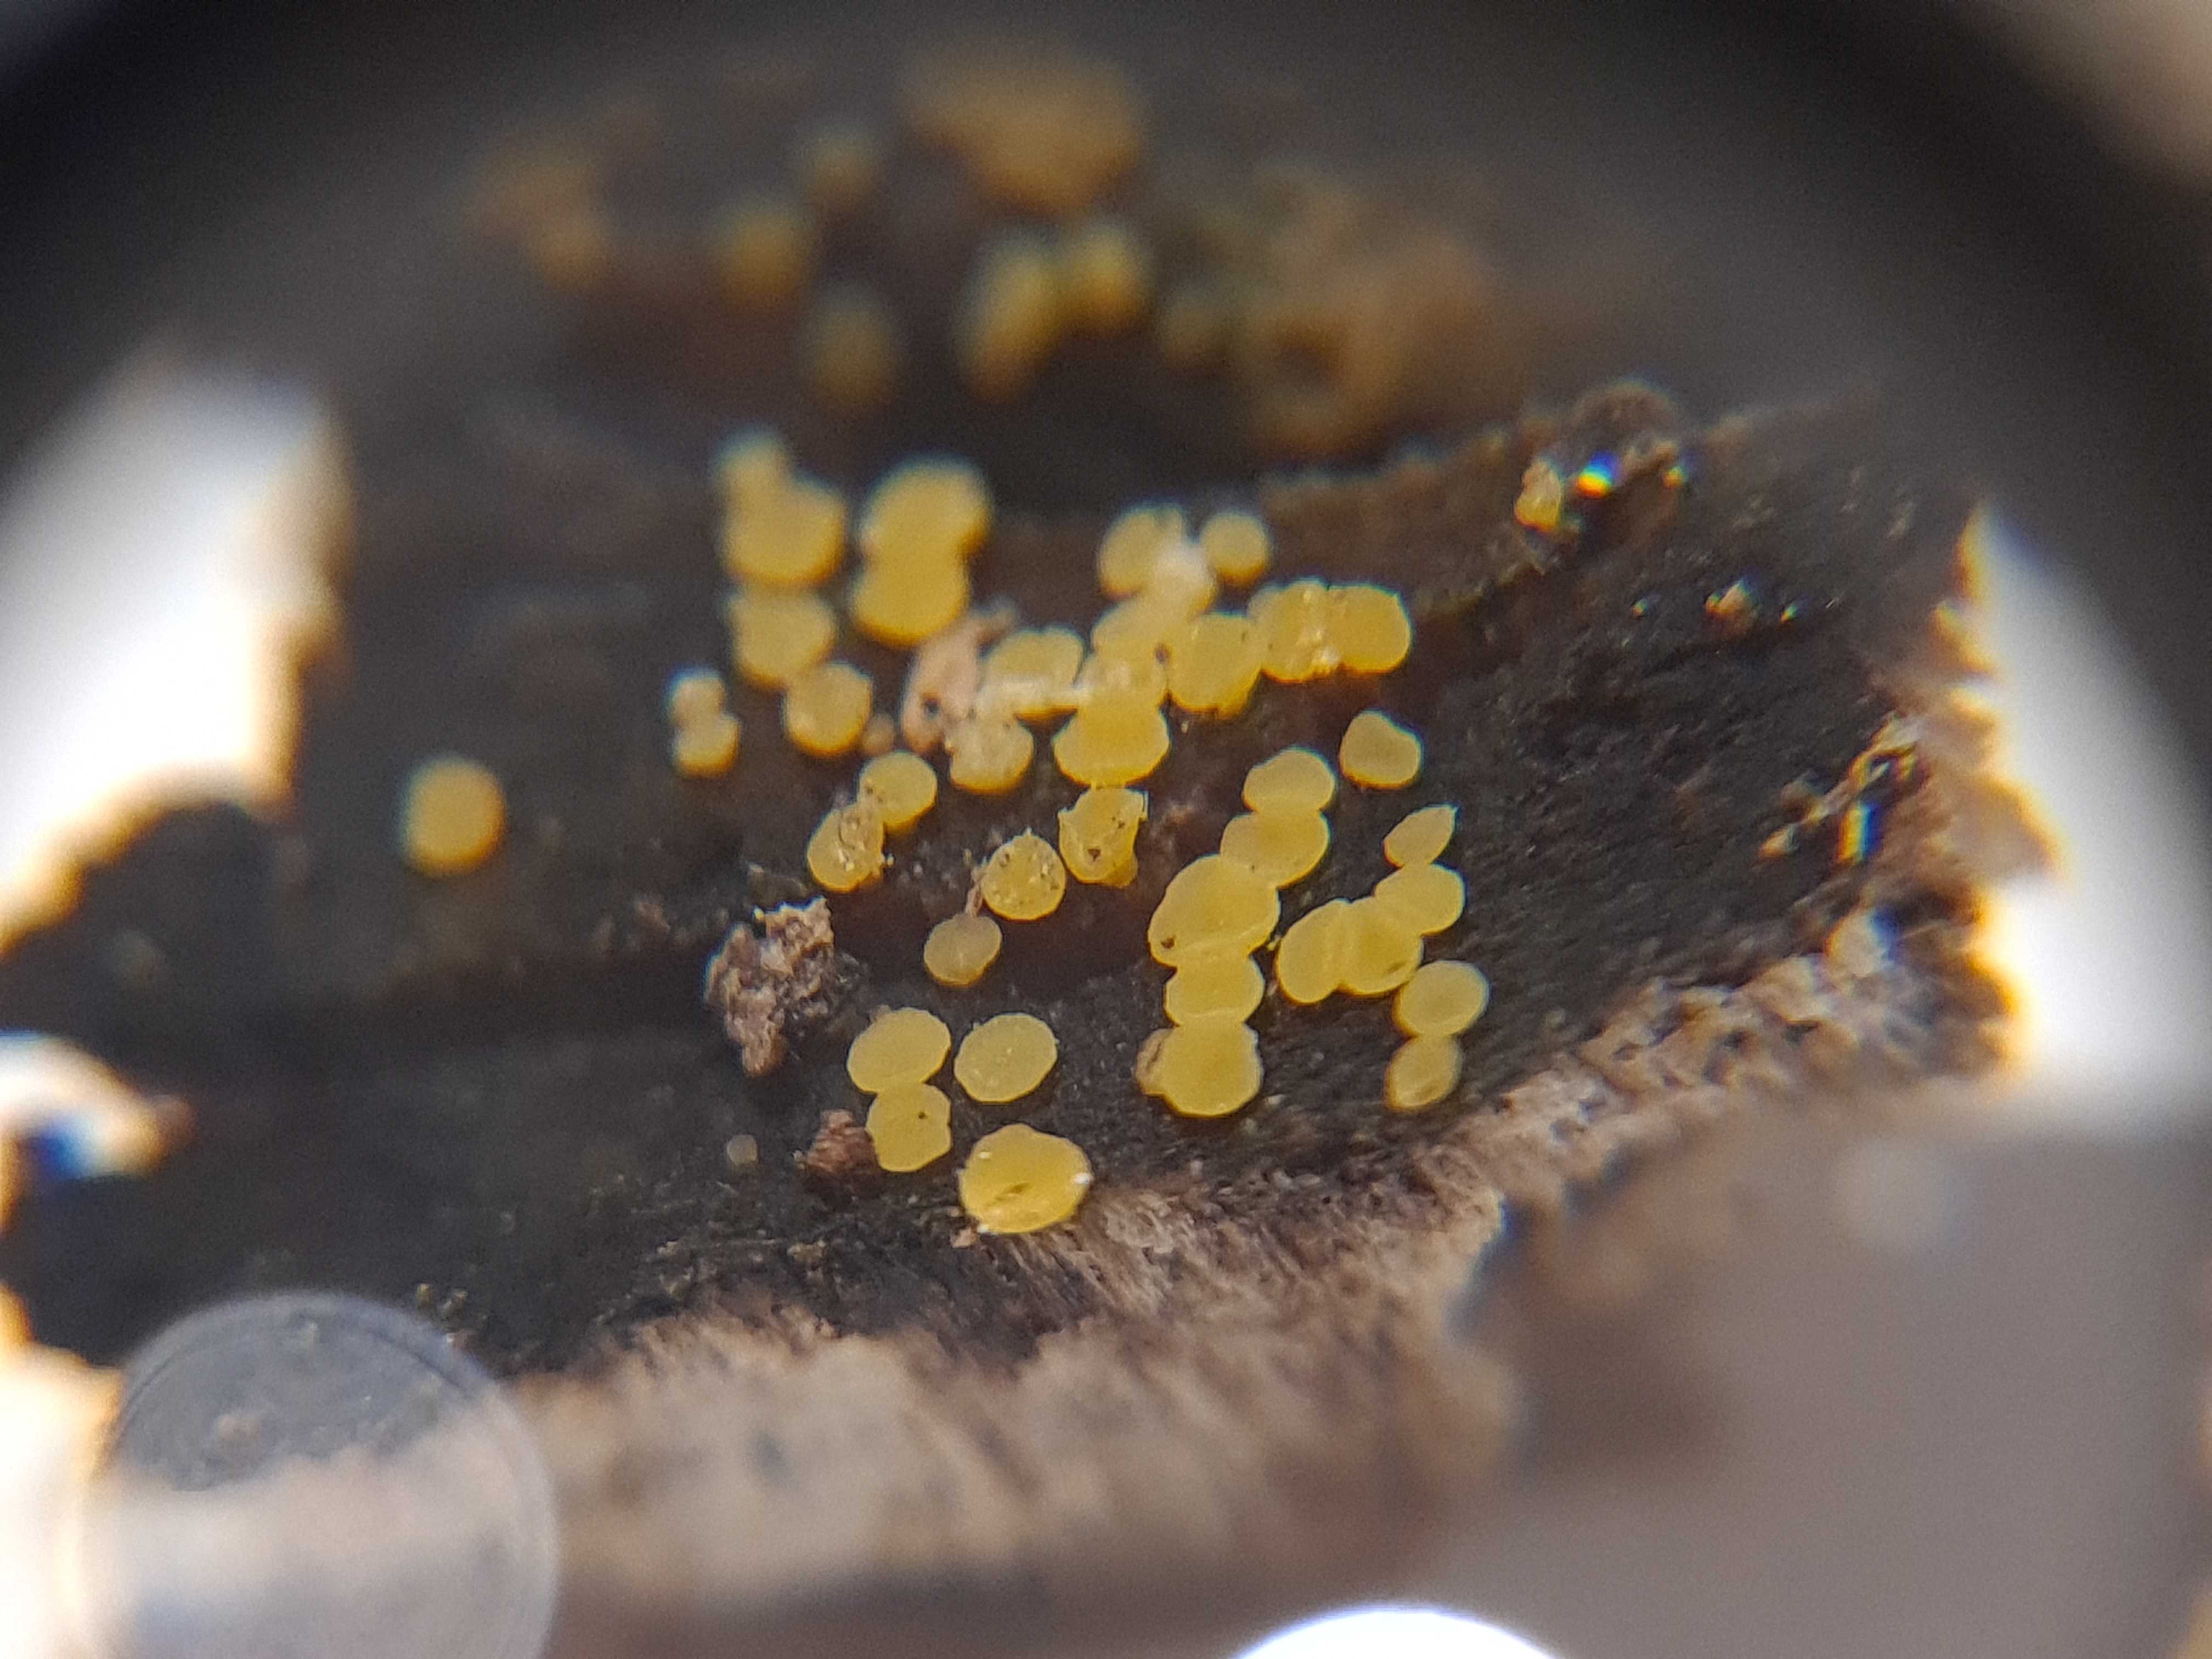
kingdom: Fungi
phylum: Ascomycota
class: Leotiomycetes
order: Helotiales
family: Helotiaceae
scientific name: Helotiaceae
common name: stilkskivefamilien
